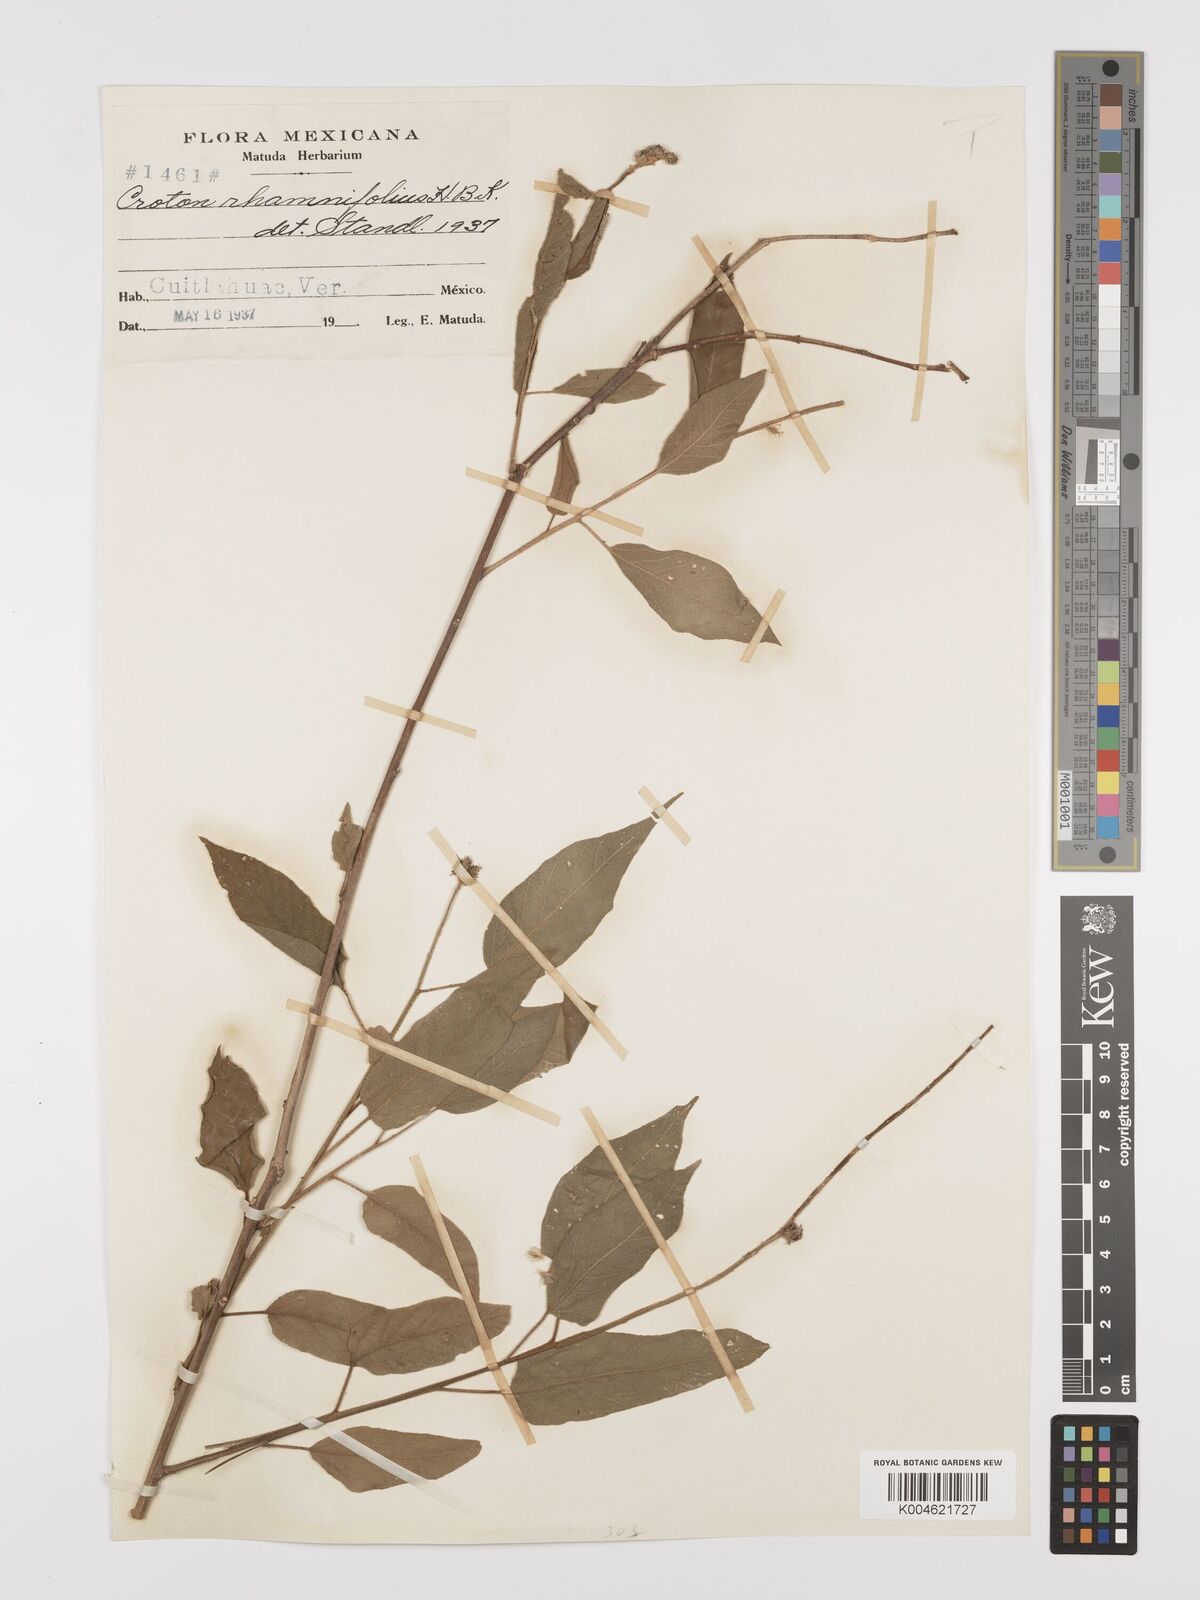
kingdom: Plantae
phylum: Tracheophyta
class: Magnoliopsida
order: Malpighiales
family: Euphorbiaceae
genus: Croton
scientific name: Croton
